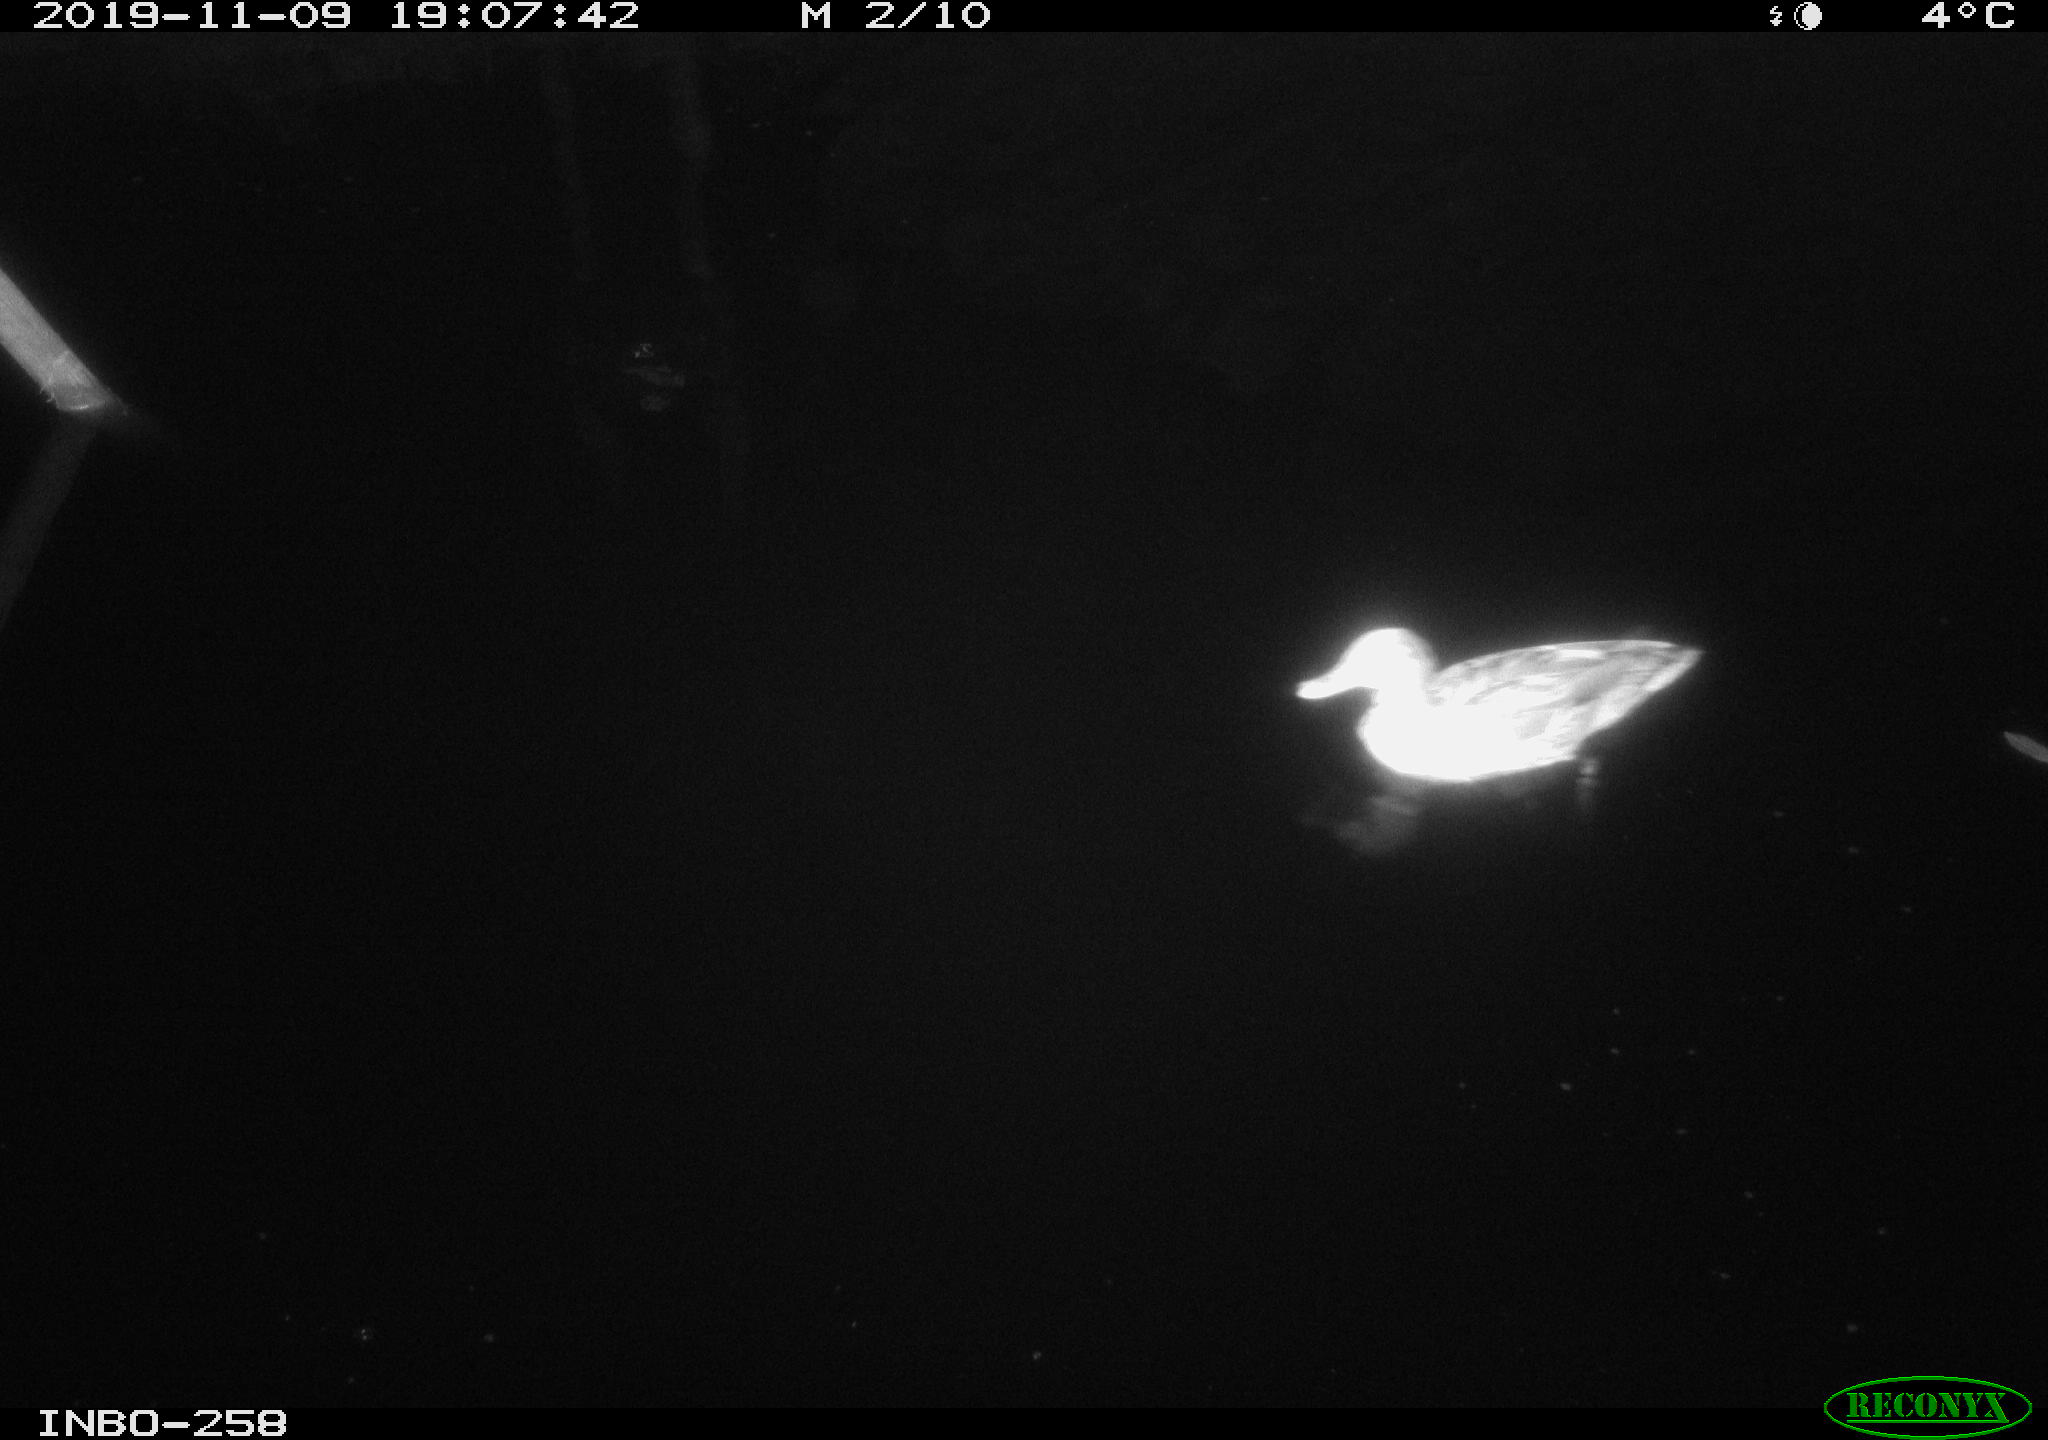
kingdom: Animalia
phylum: Chordata
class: Aves
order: Anseriformes
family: Anatidae
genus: Anas
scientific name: Anas platyrhynchos
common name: Mallard
